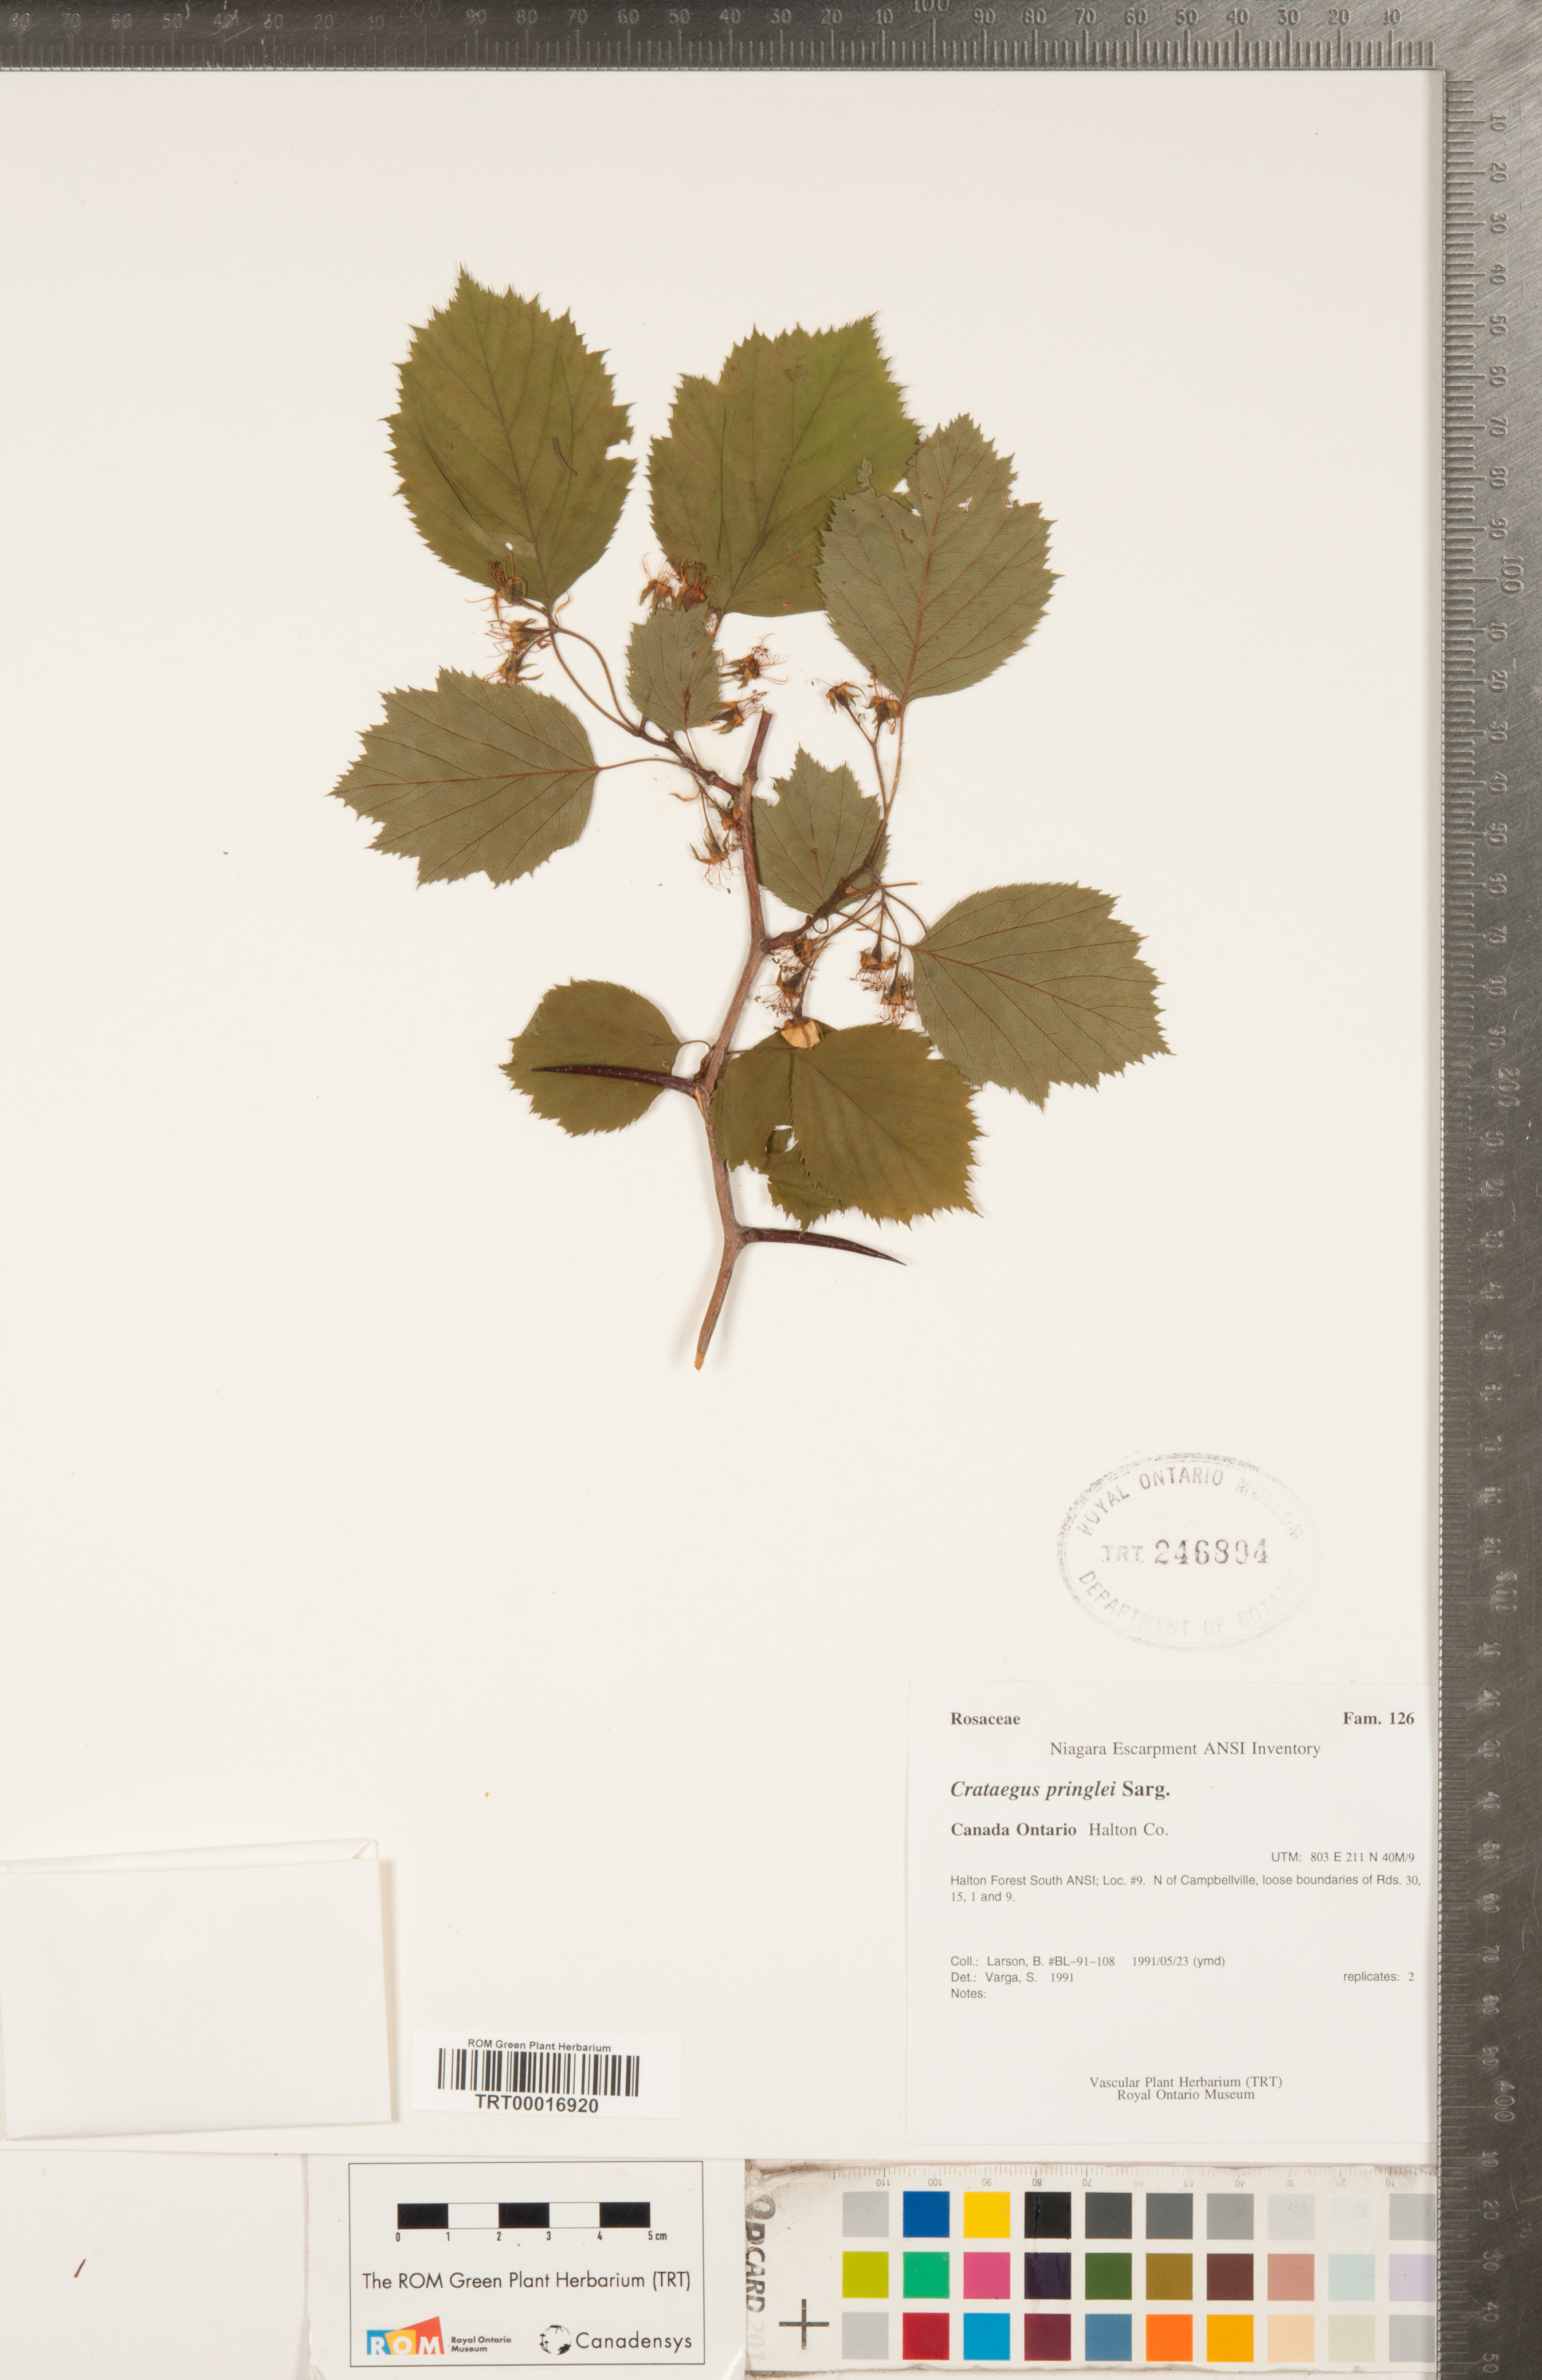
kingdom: Plantae
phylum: Tracheophyta
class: Magnoliopsida
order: Rosales
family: Rosaceae
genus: Crataegus
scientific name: Crataegus coccinea
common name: Scarlet hawthorn
